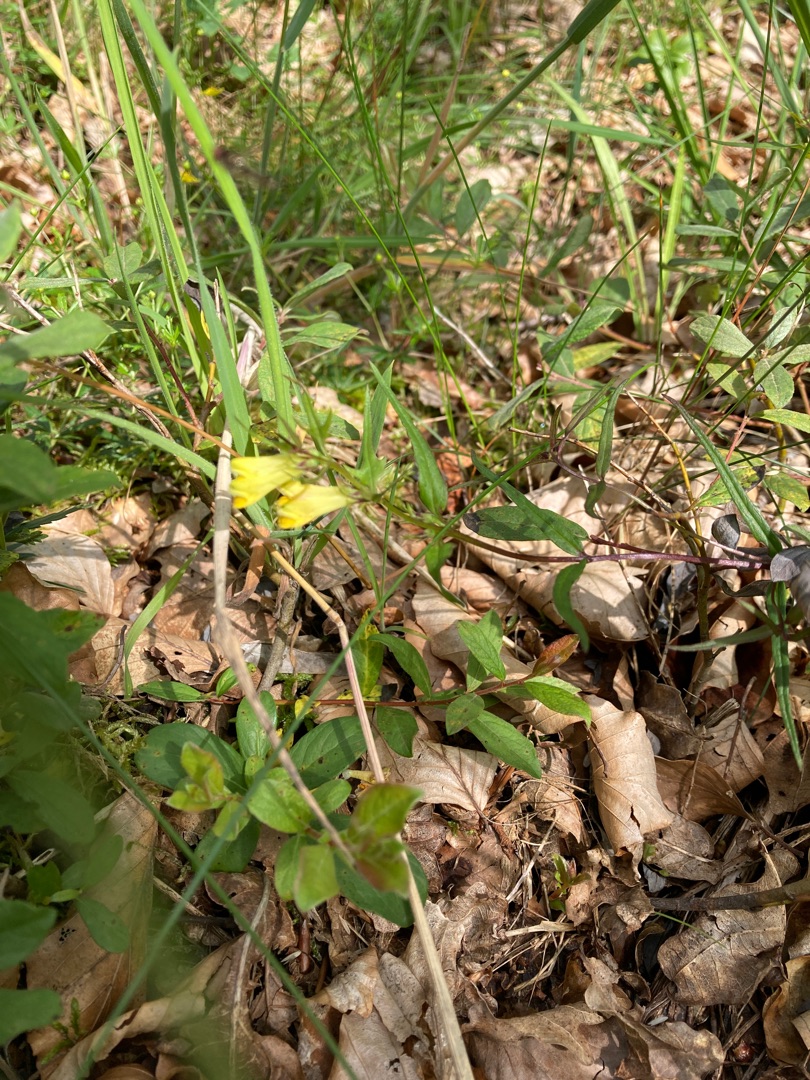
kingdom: Plantae
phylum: Tracheophyta
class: Magnoliopsida
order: Lamiales
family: Orobanchaceae
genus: Melampyrum
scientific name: Melampyrum pratense
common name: Almindelig kohvede
